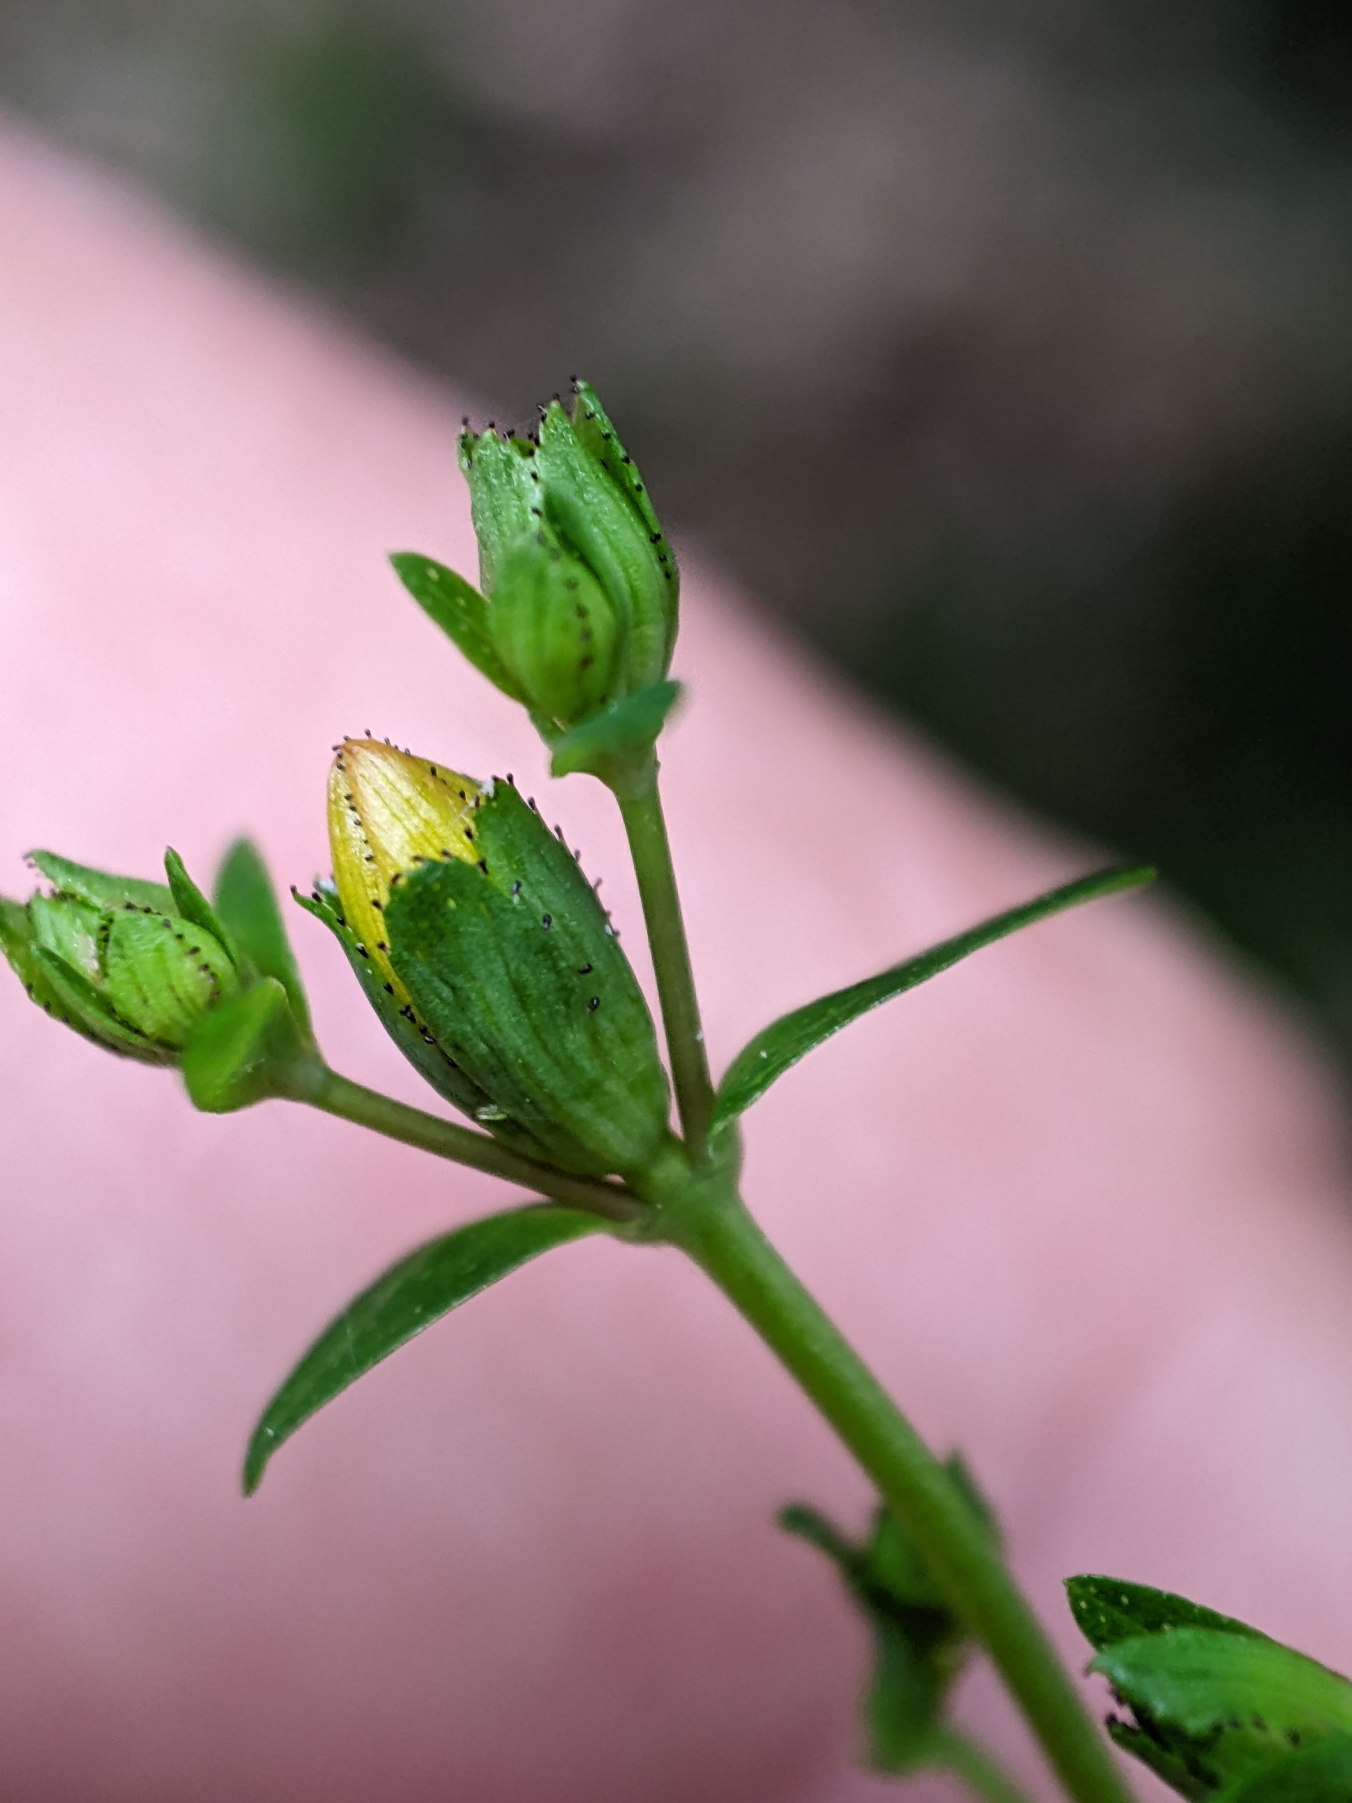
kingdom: Plantae
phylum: Tracheophyta
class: Magnoliopsida
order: Malpighiales
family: Hypericaceae
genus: Hypericum
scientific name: Hypericum pulchrum
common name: Smuk perikon
